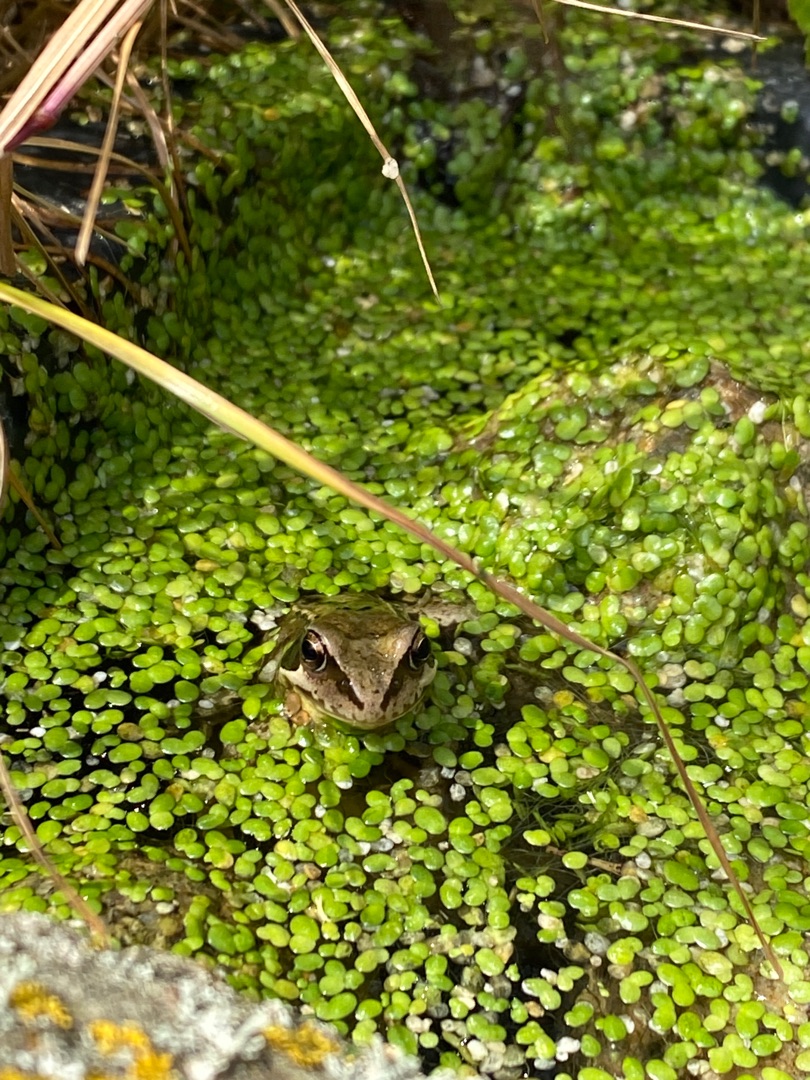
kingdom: Animalia
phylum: Chordata
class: Amphibia
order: Anura
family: Ranidae
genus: Rana
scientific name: Rana temporaria
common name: Butsnudet frø
